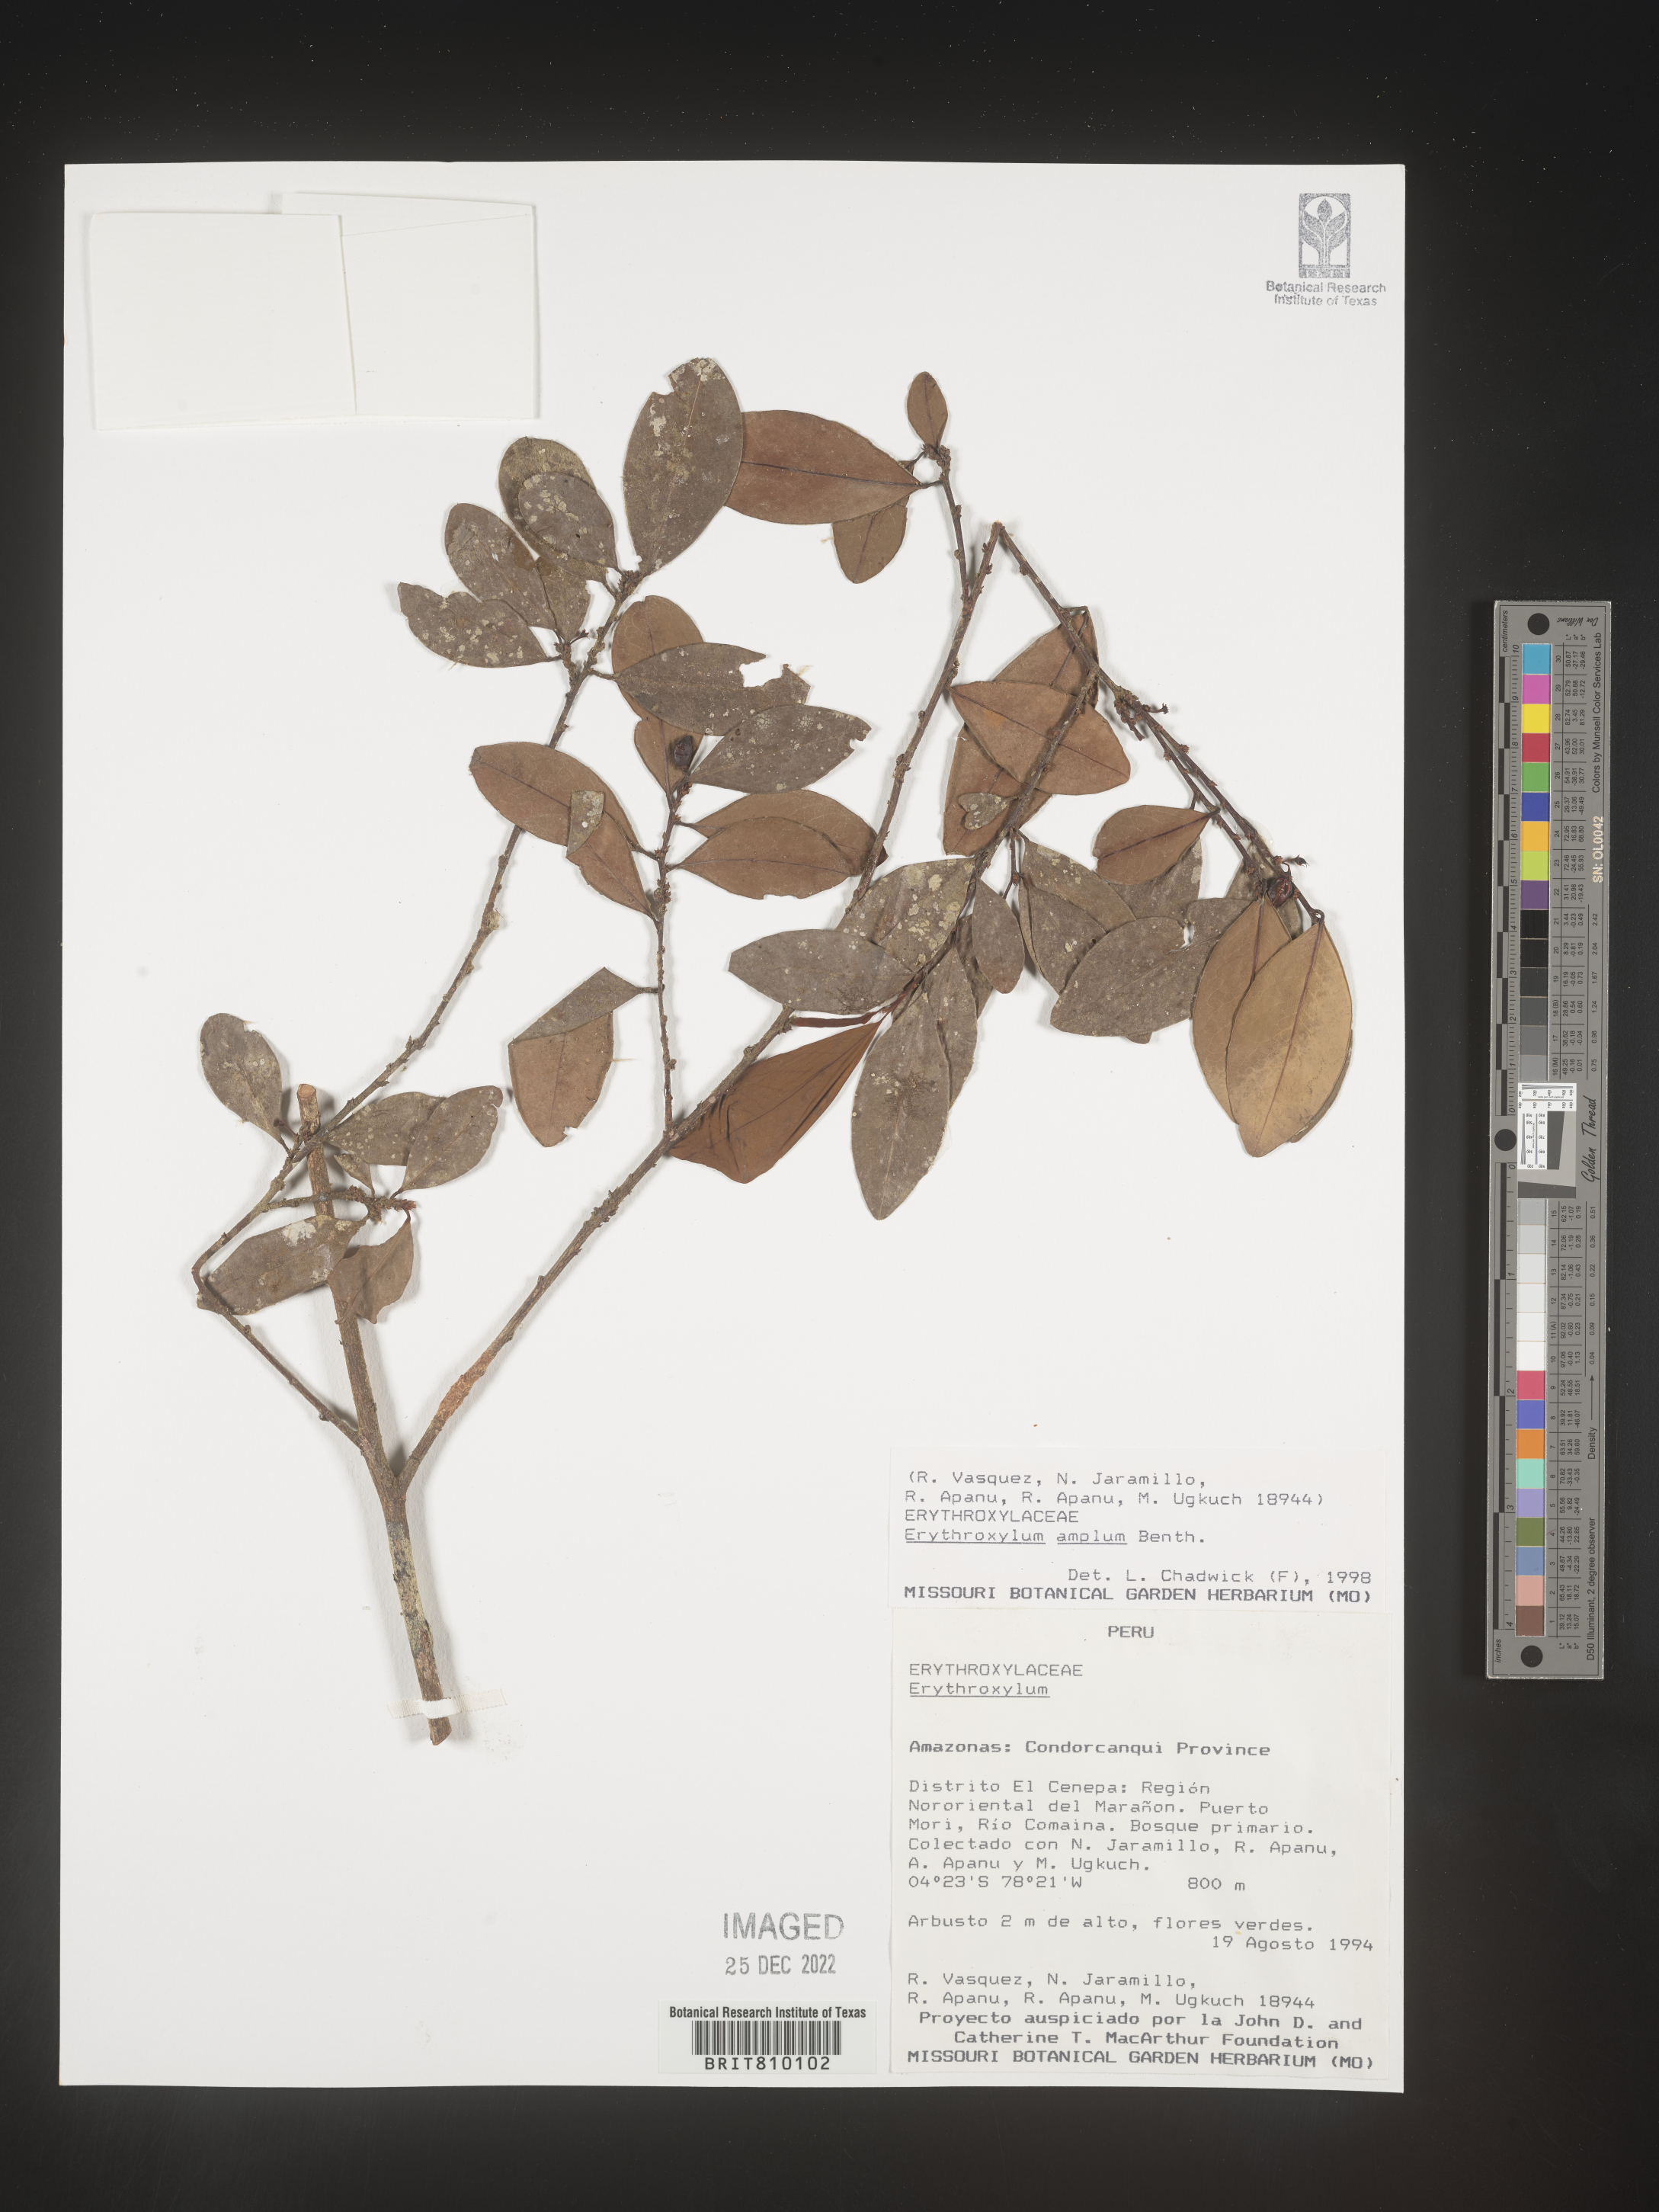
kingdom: Plantae
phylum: Tracheophyta
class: Magnoliopsida
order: Malpighiales
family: Erythroxylaceae
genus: Erythroxylum
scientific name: Erythroxylum
